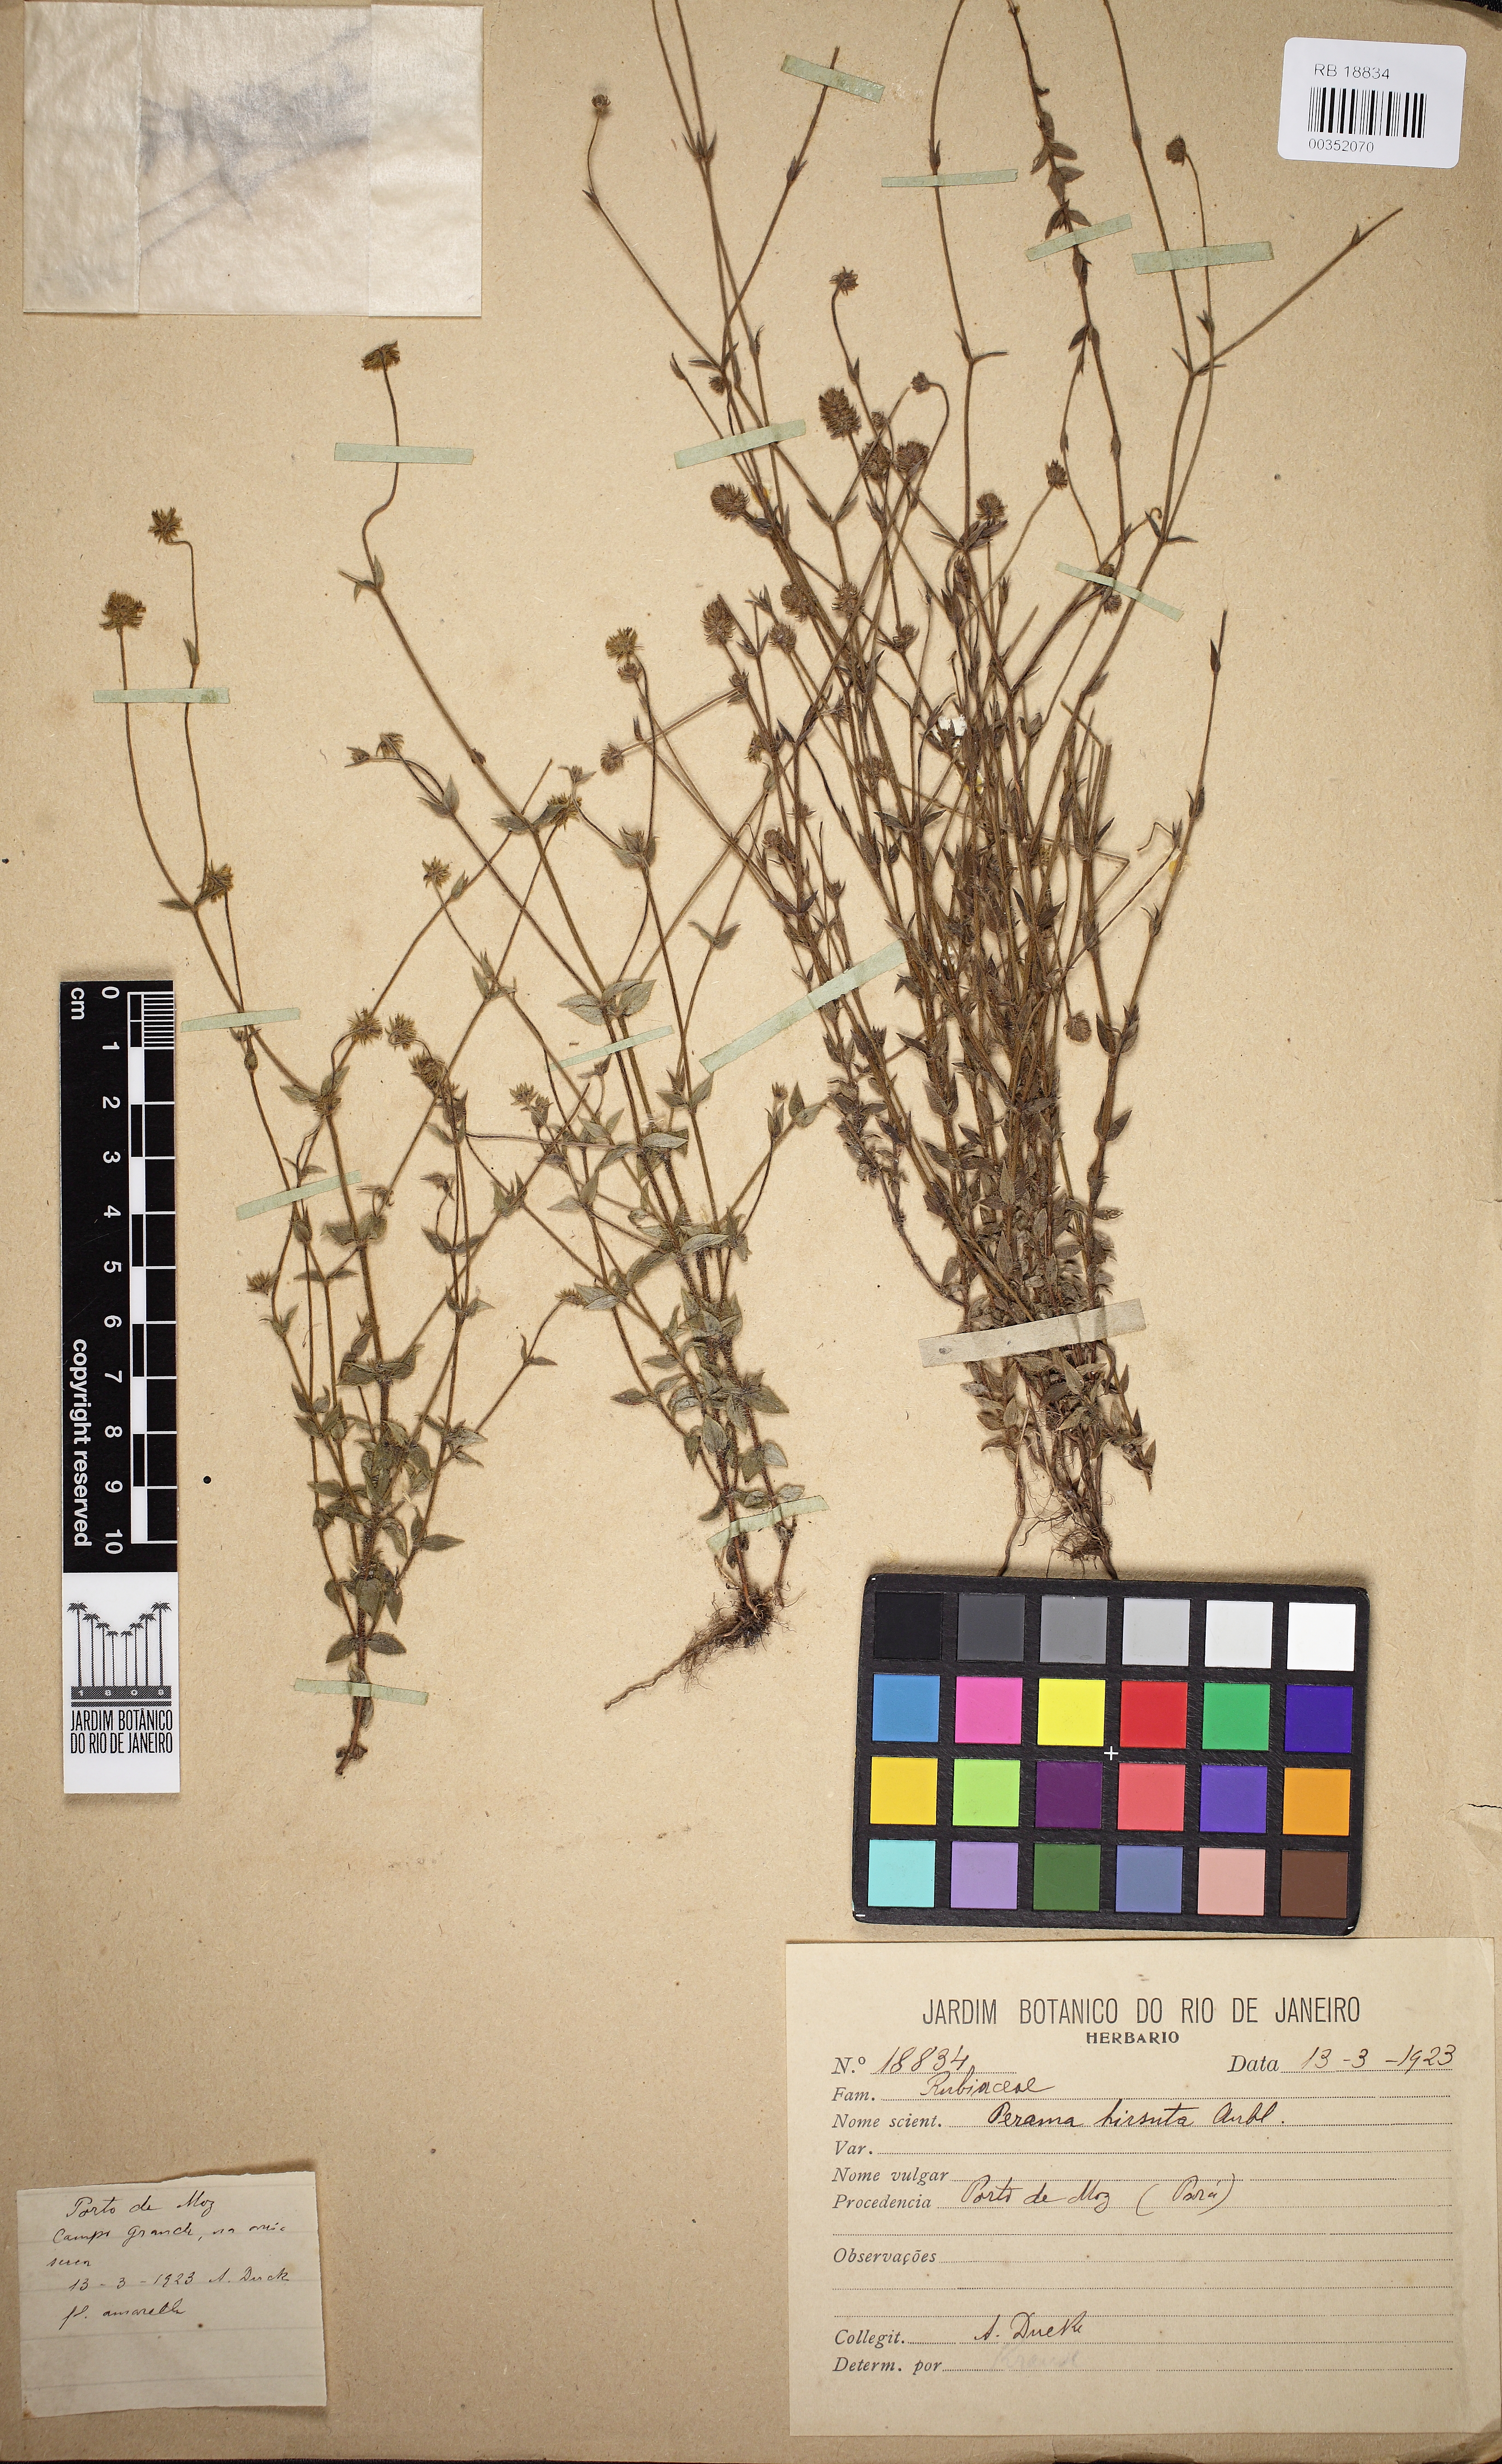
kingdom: Plantae
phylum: Tracheophyta
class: Magnoliopsida
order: Gentianales
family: Rubiaceae
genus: Perama
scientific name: Perama hirsuta
